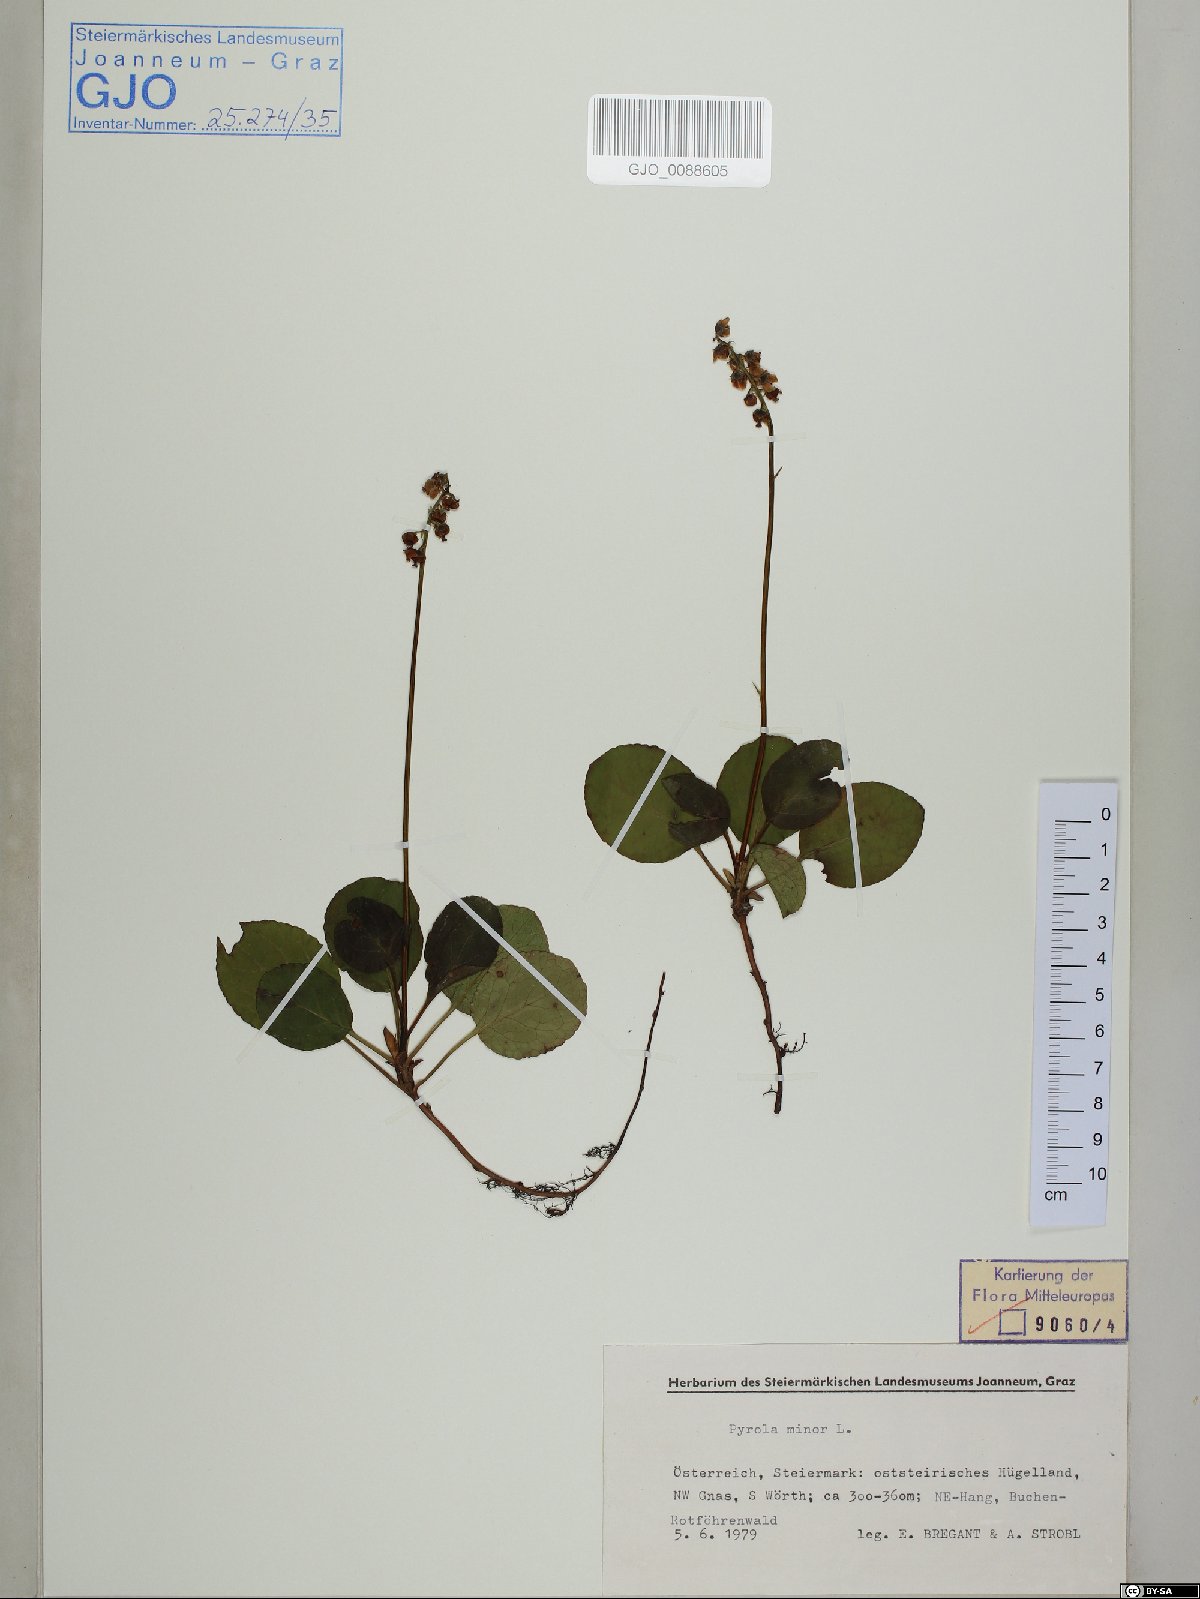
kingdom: Plantae
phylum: Tracheophyta
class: Magnoliopsida
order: Ericales
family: Ericaceae
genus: Pyrola
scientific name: Pyrola minor
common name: Common wintergreen
